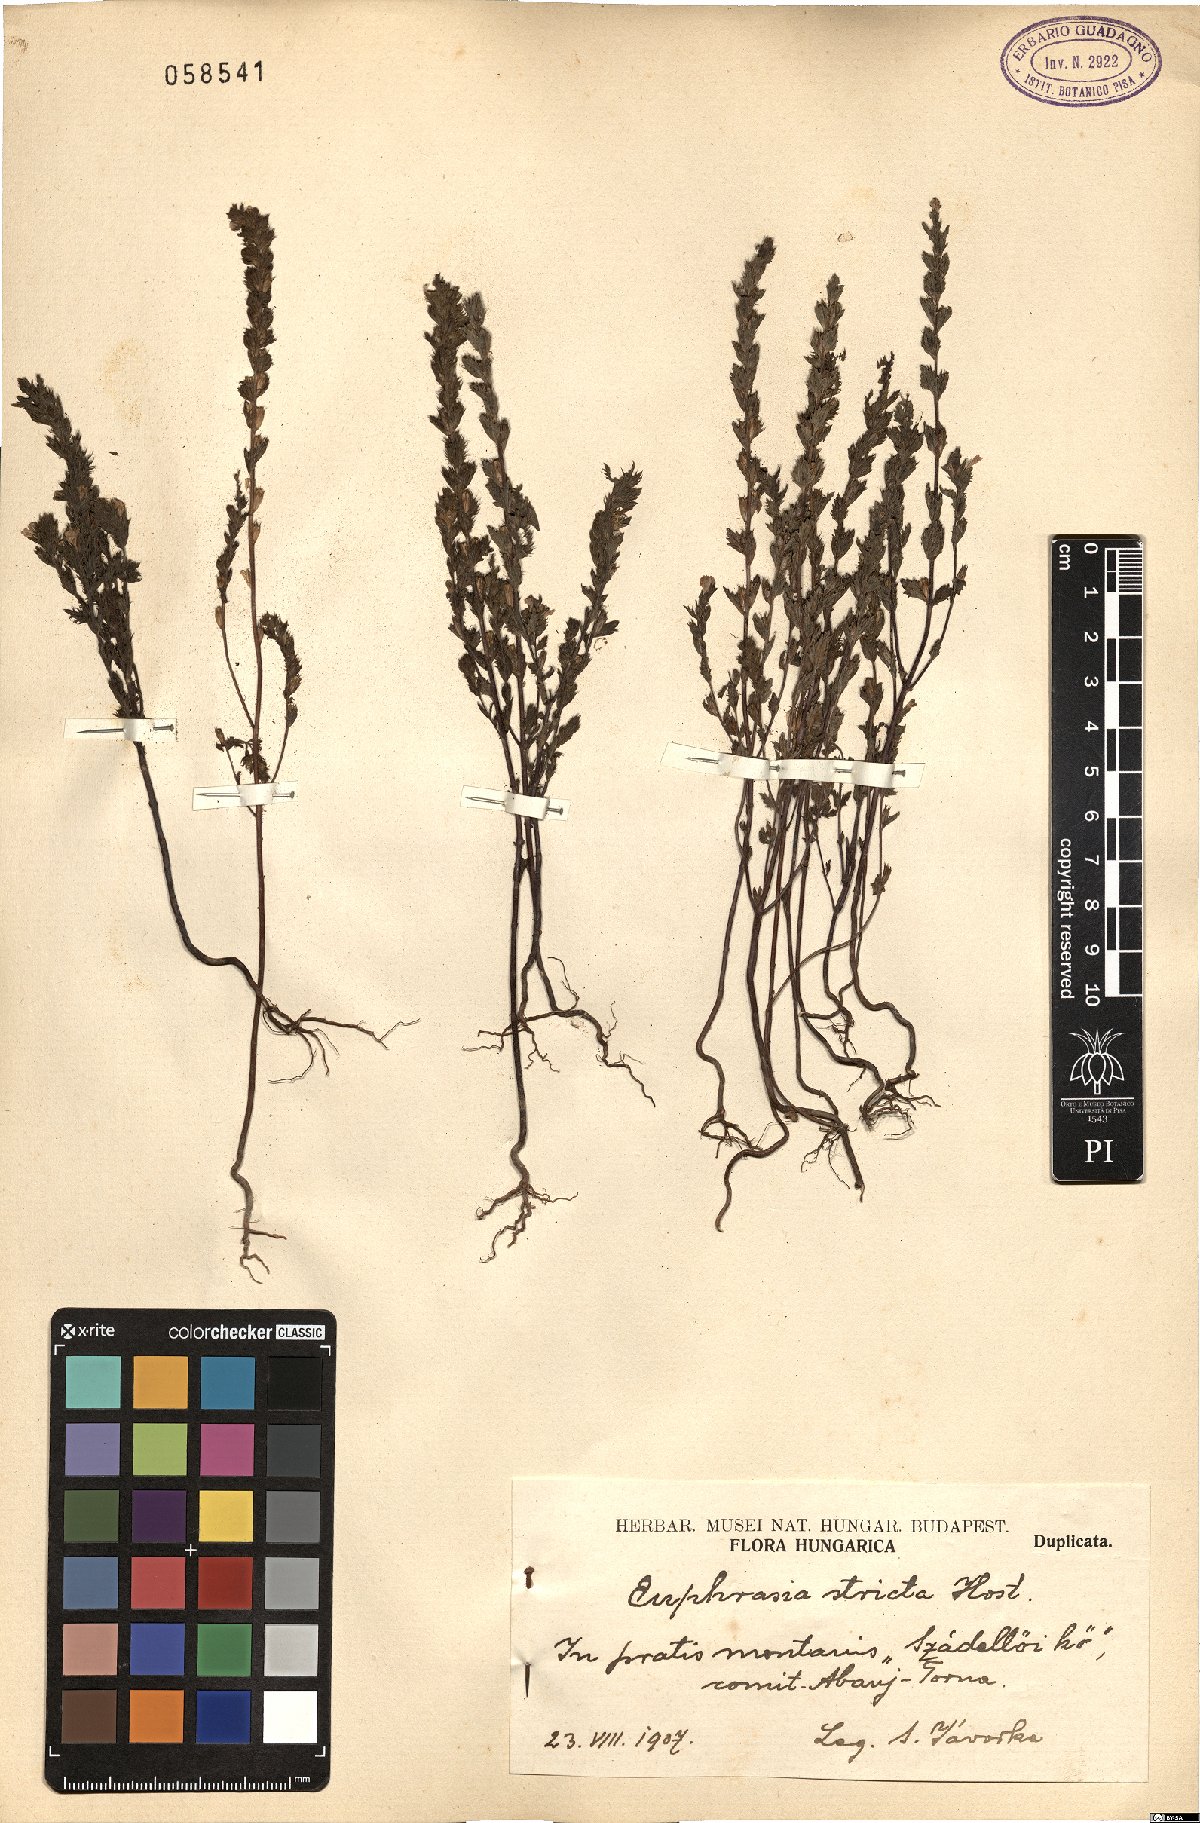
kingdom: Plantae
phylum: Tracheophyta
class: Magnoliopsida
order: Lamiales
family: Orobanchaceae
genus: Euphrasia
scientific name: Euphrasia stricta
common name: Drug eyebright
